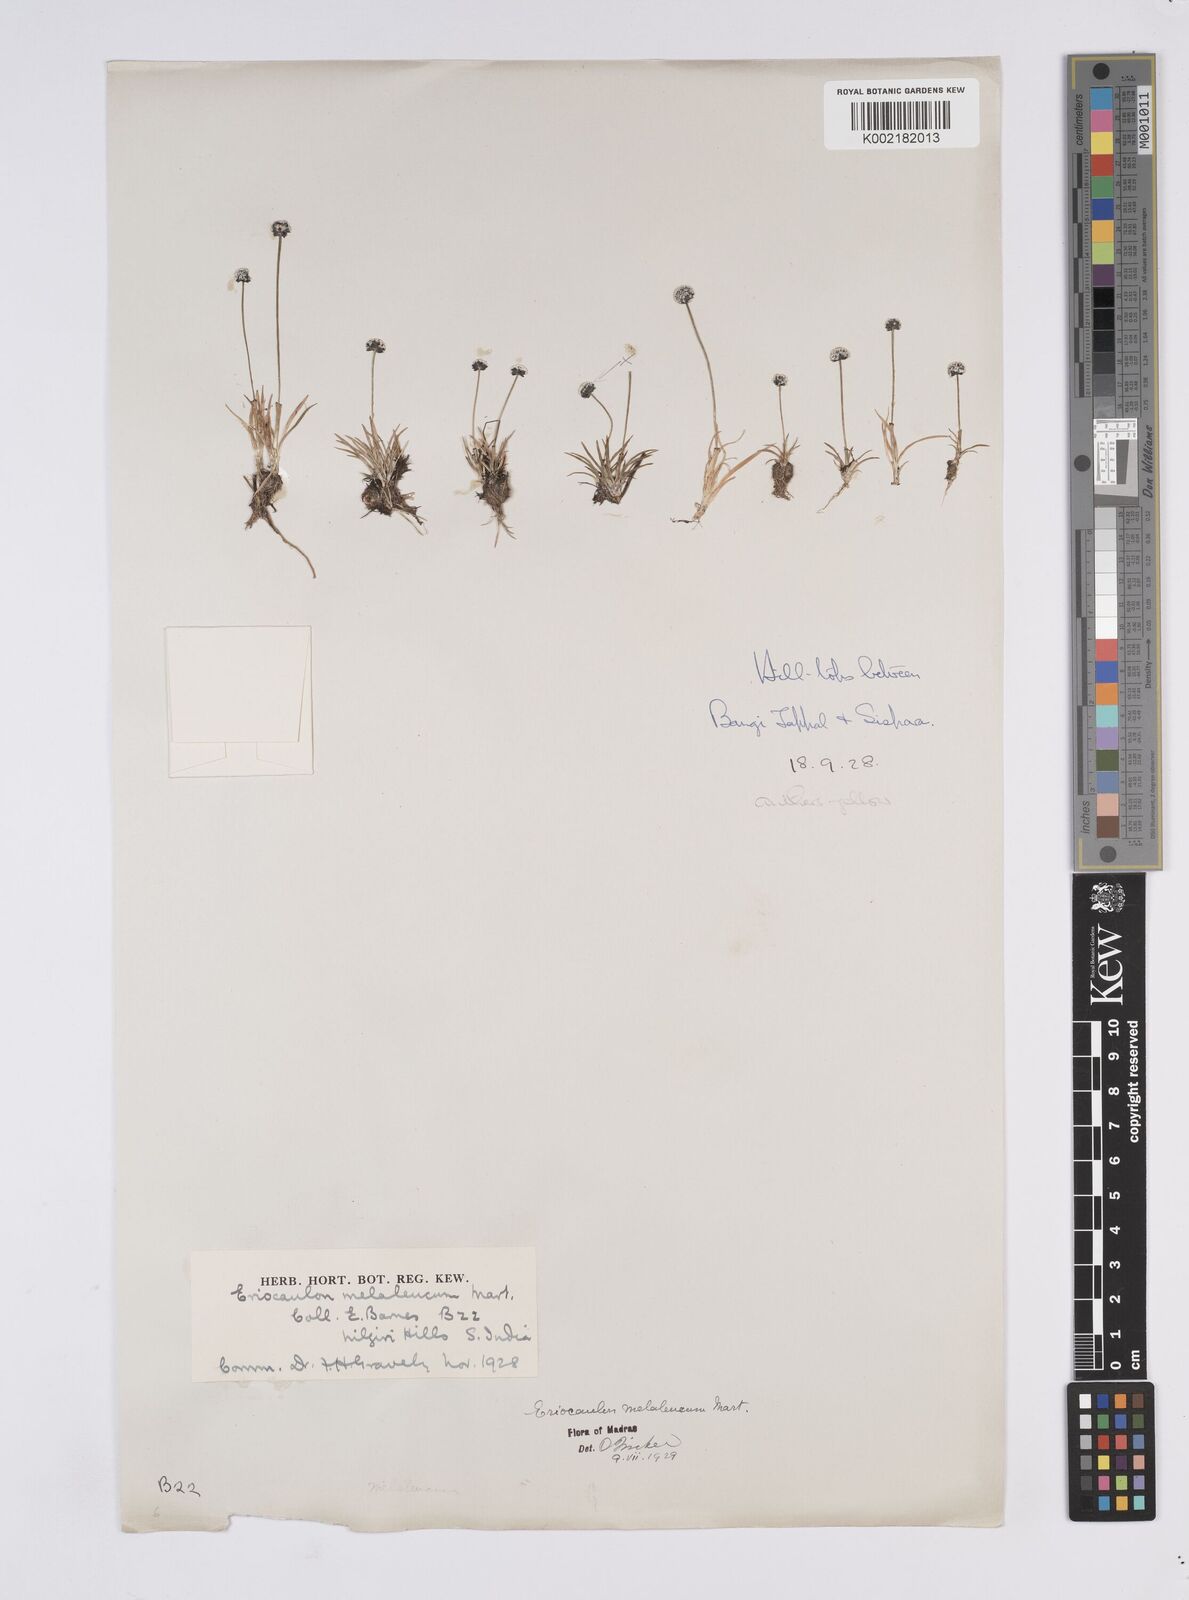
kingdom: Plantae
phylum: Tracheophyta
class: Liliopsida
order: Poales
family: Eriocaulaceae
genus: Eriocaulon
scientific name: Eriocaulon leucomelas
